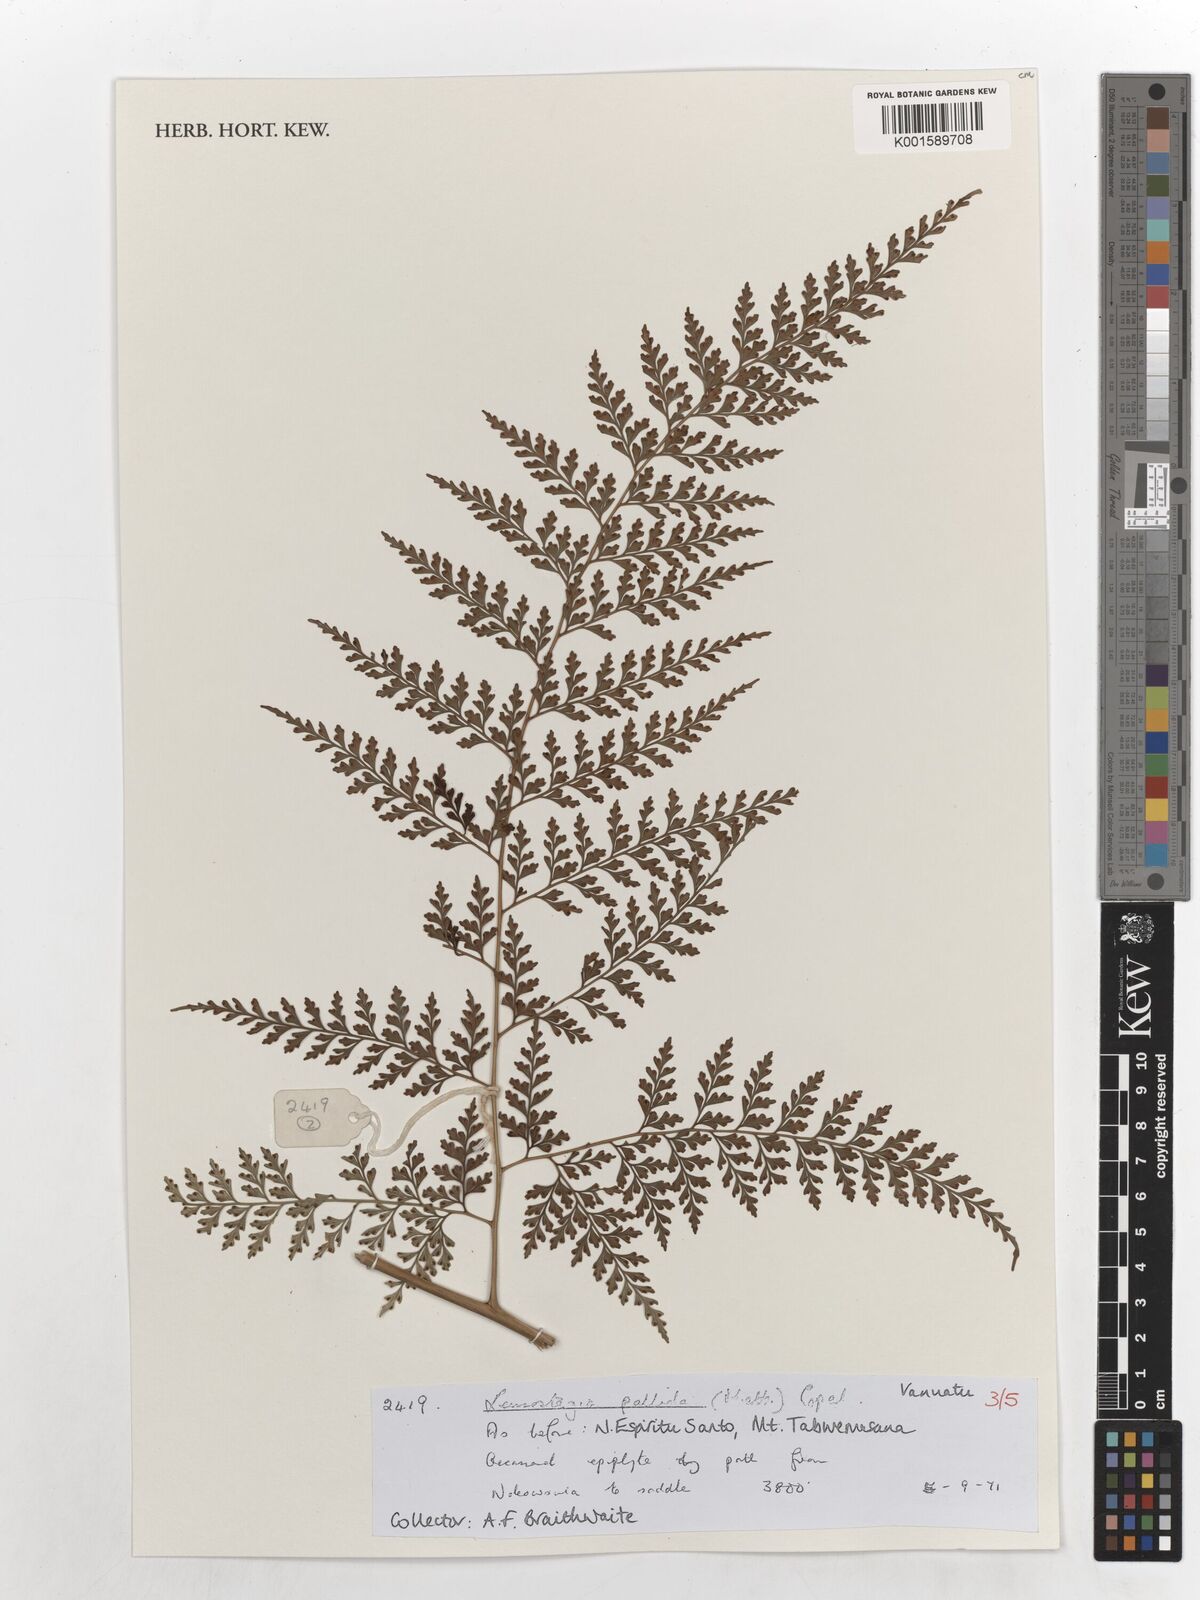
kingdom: Plantae
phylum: Tracheophyta
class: Polypodiopsida
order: Polypodiales
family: Hypodematiaceae
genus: Leucostegia
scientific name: Leucostegia pallida
